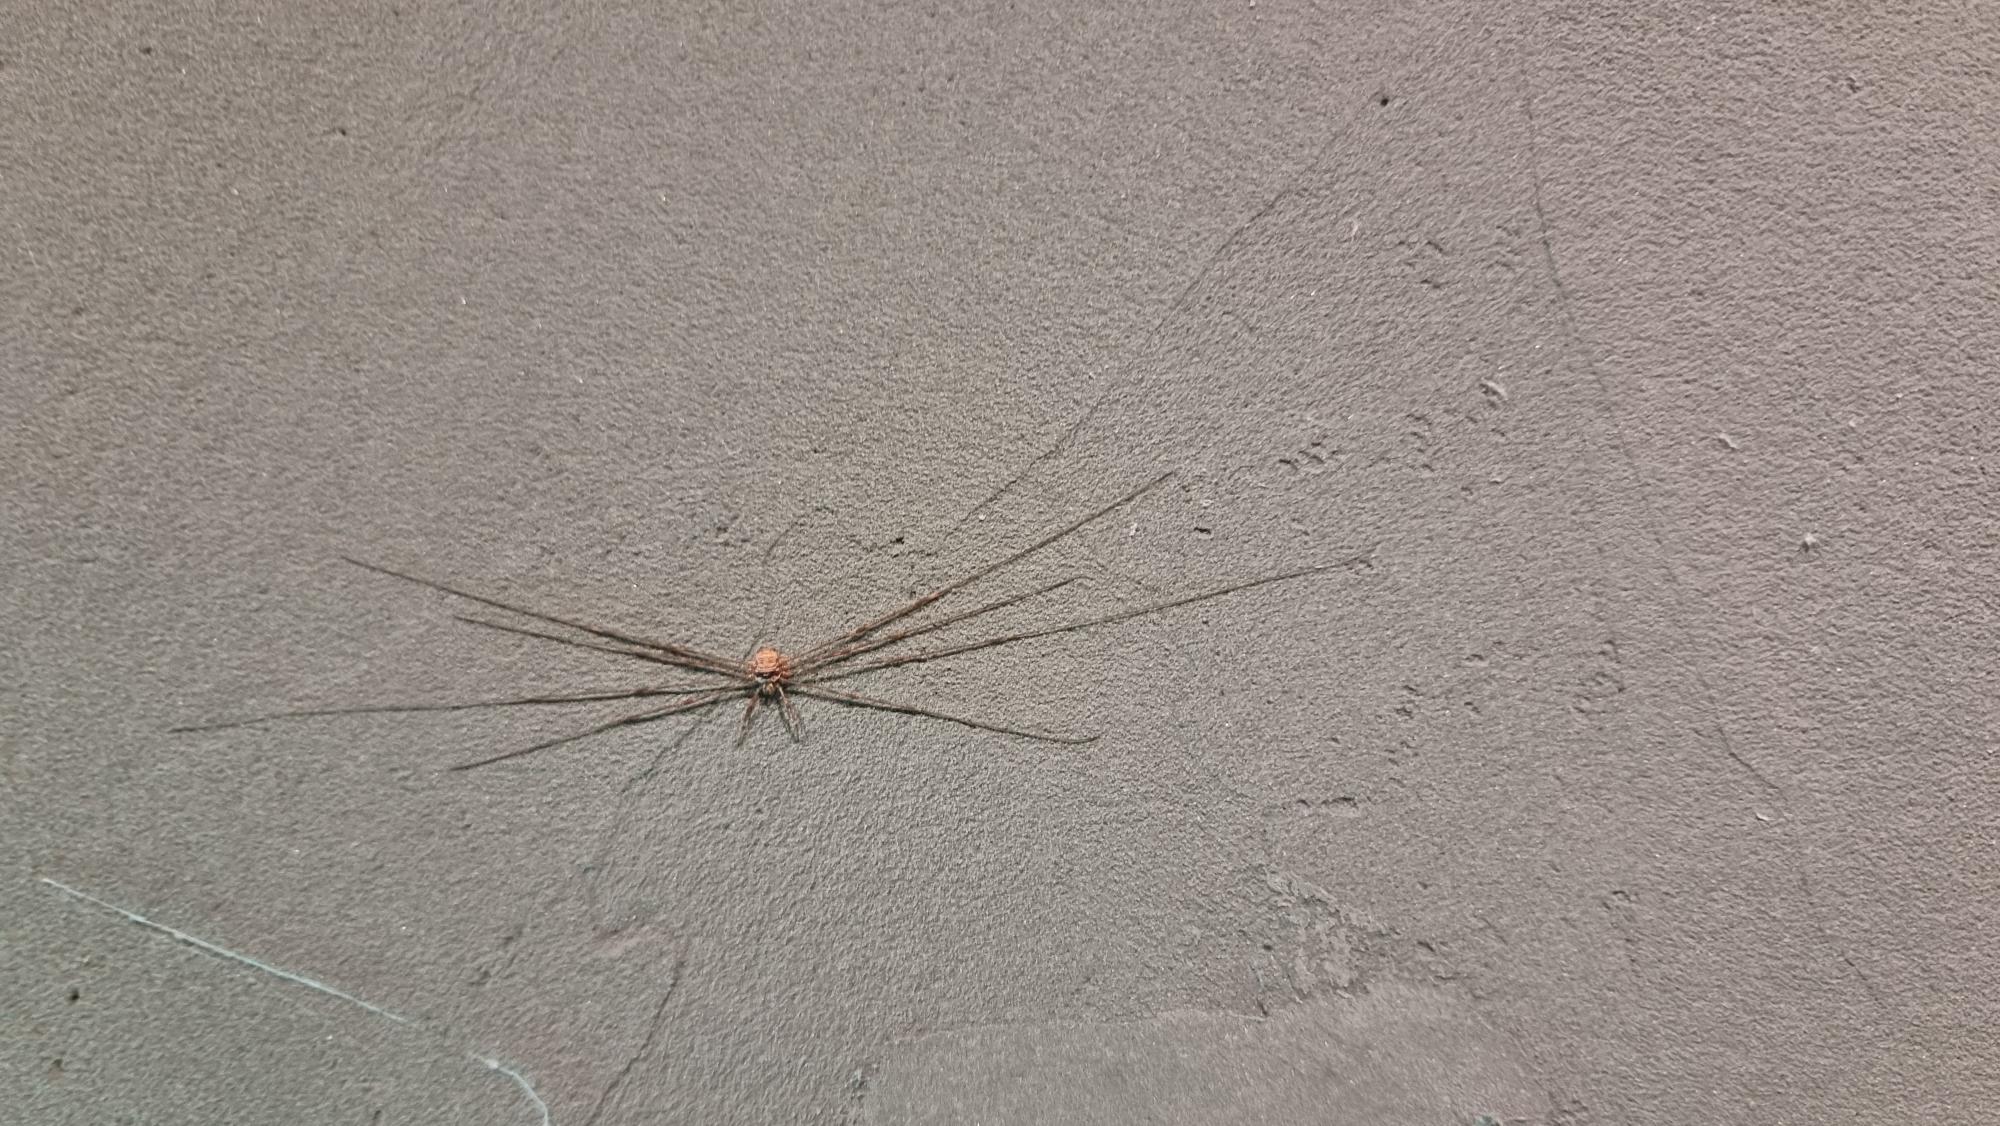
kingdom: Animalia
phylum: Arthropoda
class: Arachnida
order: Opiliones
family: Phalangiidae
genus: Dicranopalpus
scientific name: Dicranopalpus ramosus
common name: Gaffelmejer
